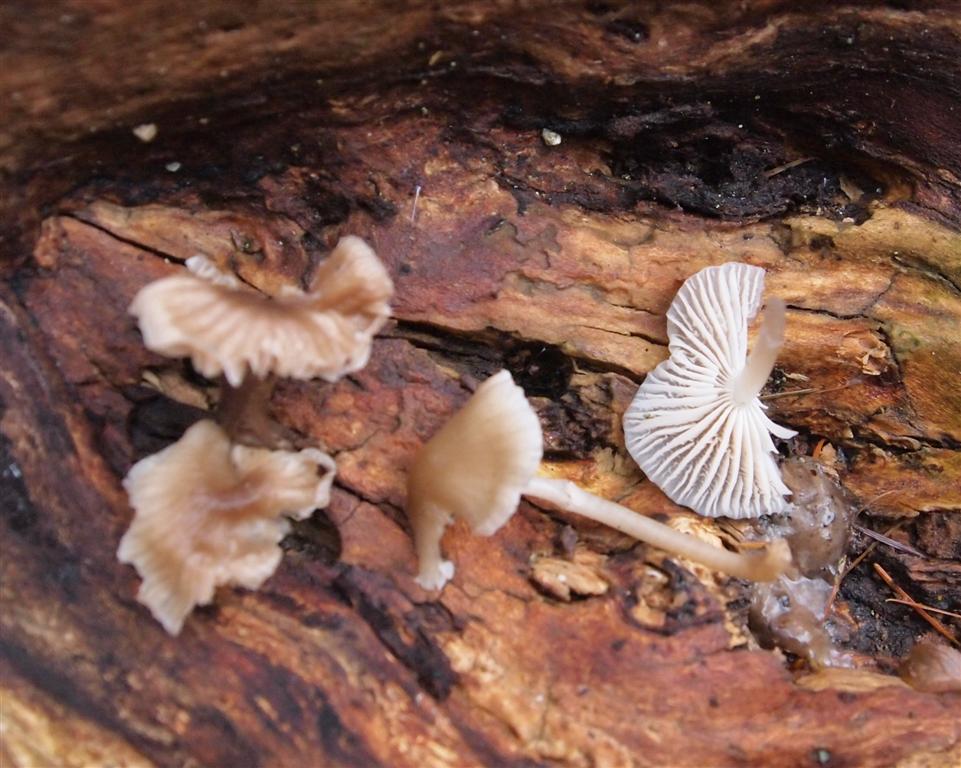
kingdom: Fungi
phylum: Basidiomycota
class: Agaricomycetes
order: Agaricales
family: Mycenaceae
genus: Mycena
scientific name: Mycena galericulata
